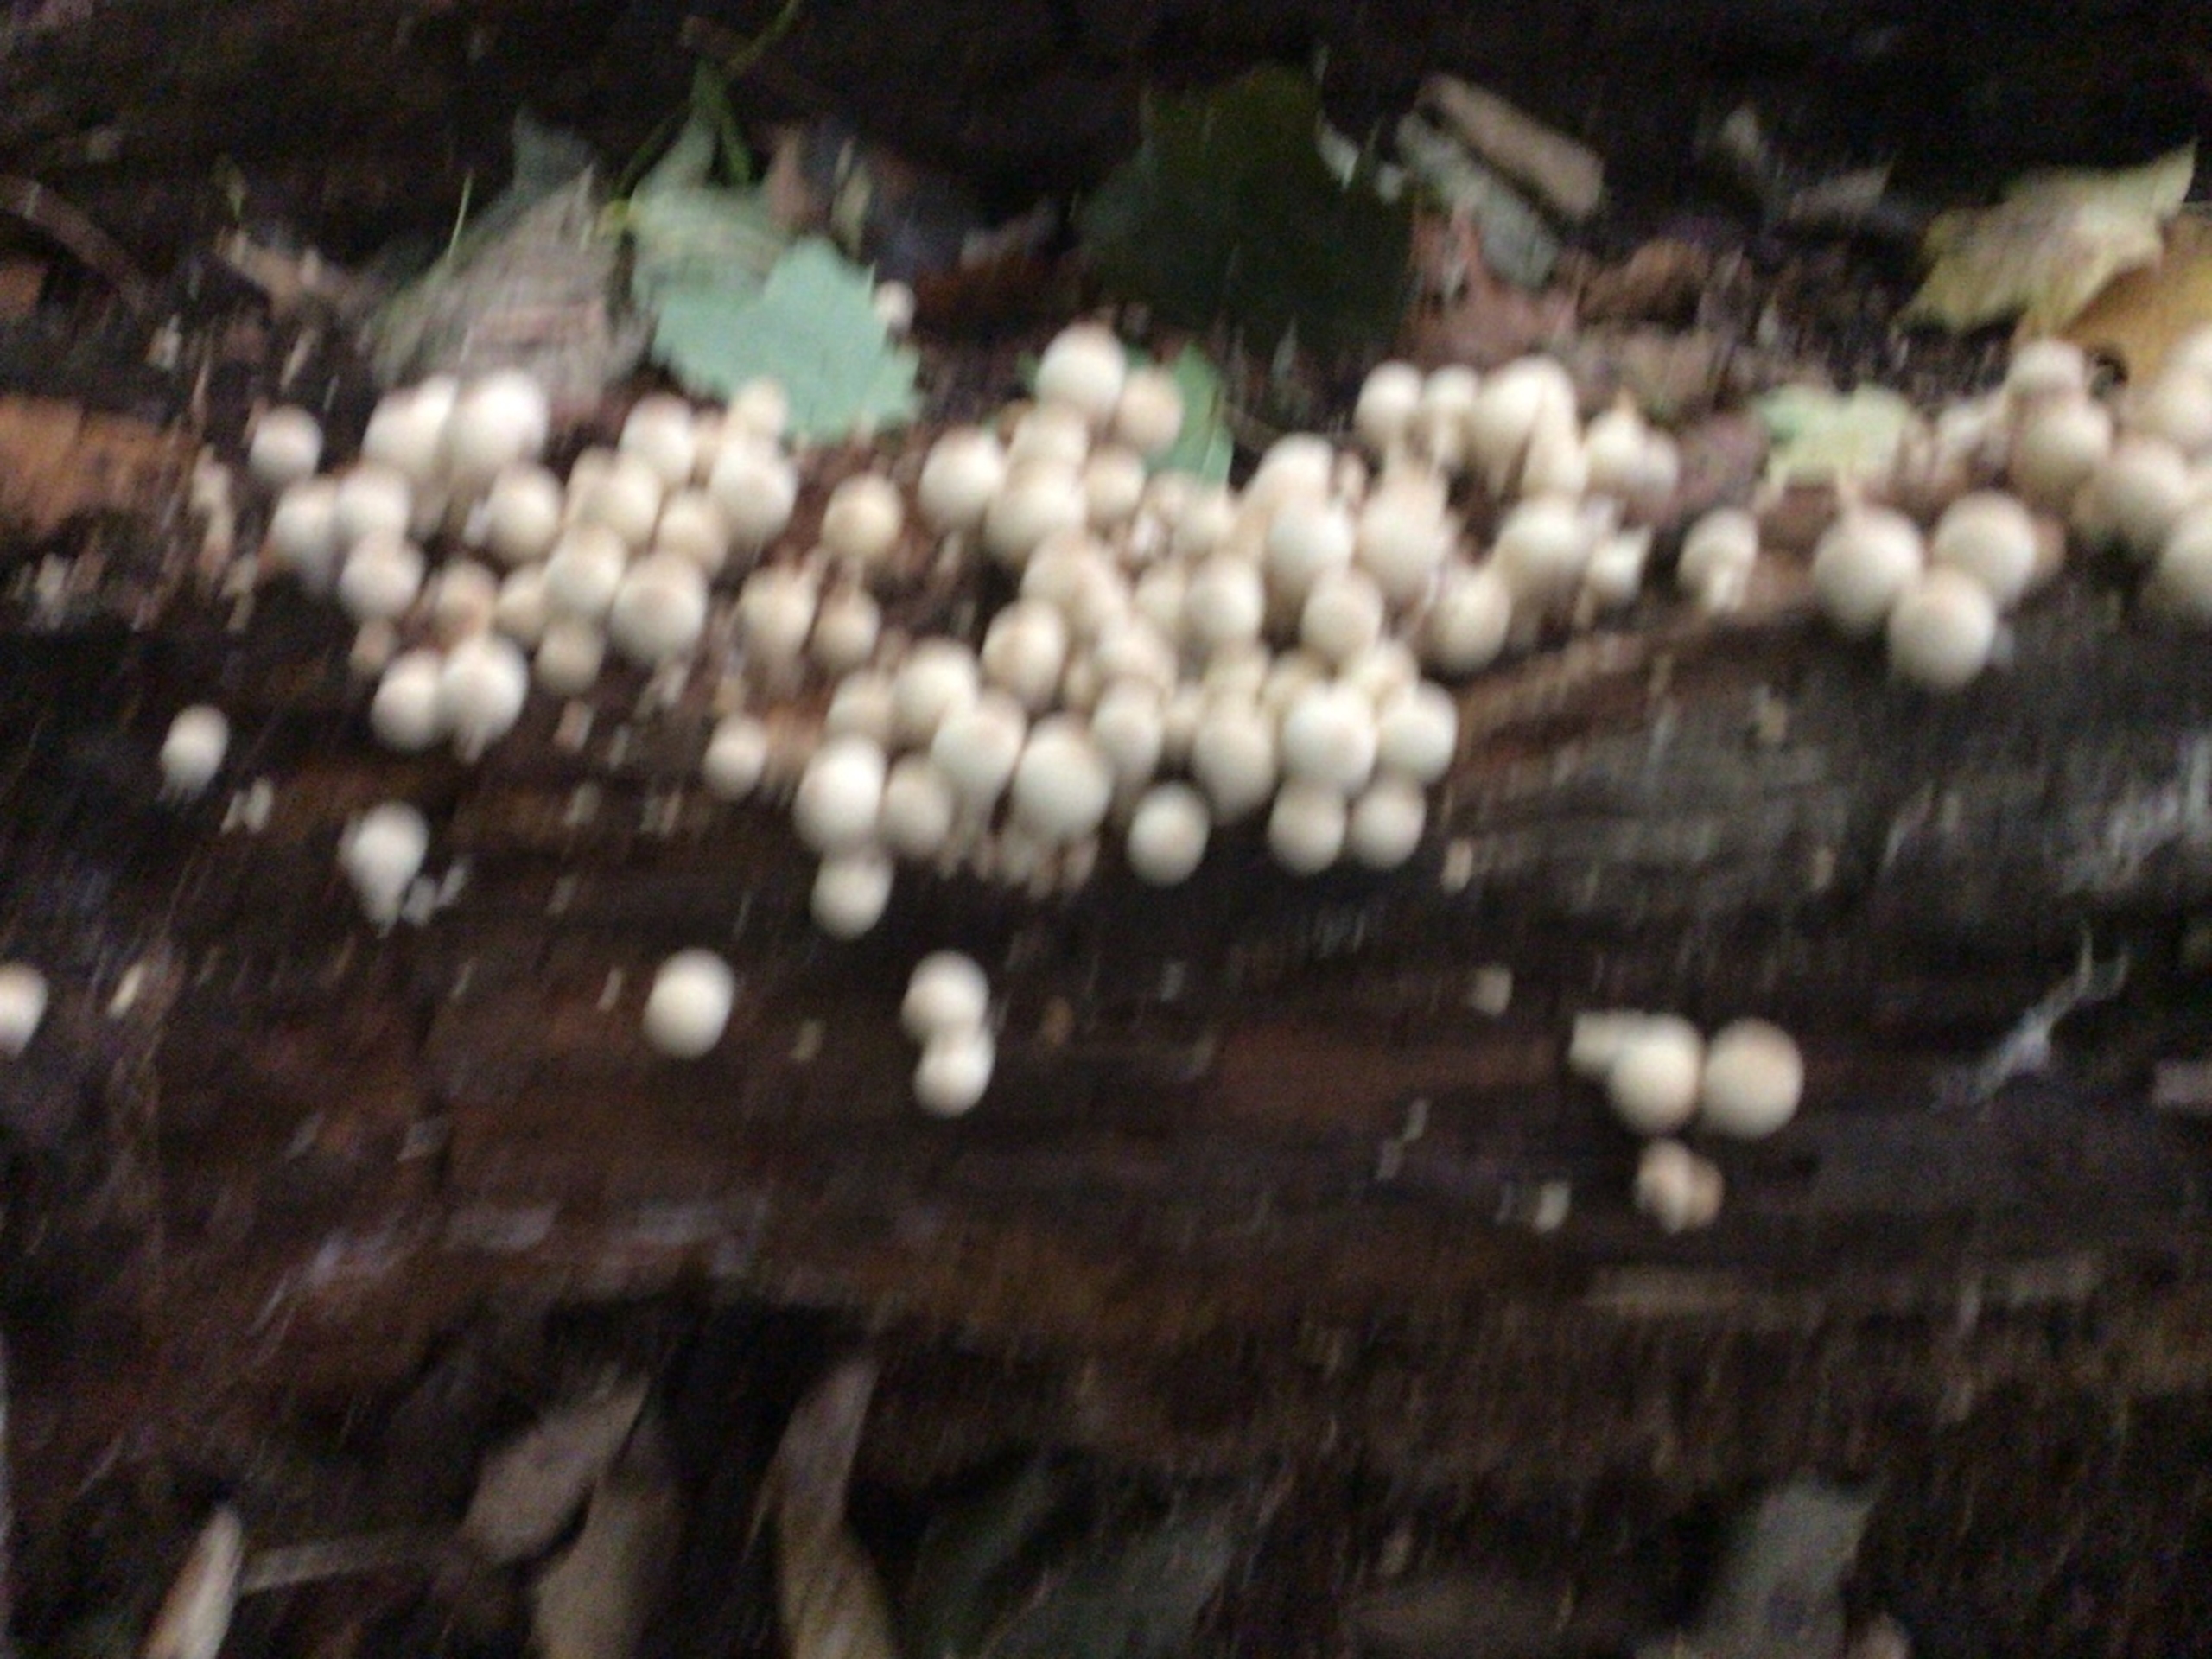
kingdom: Fungi
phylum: Basidiomycota
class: Agaricomycetes
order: Agaricales
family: Lycoperdaceae
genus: Apioperdon
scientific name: Apioperdon pyriforme
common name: Pære-støvbold
